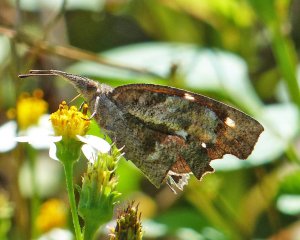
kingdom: Animalia
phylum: Arthropoda
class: Insecta
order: Lepidoptera
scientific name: Lepidoptera
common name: Butterflies
